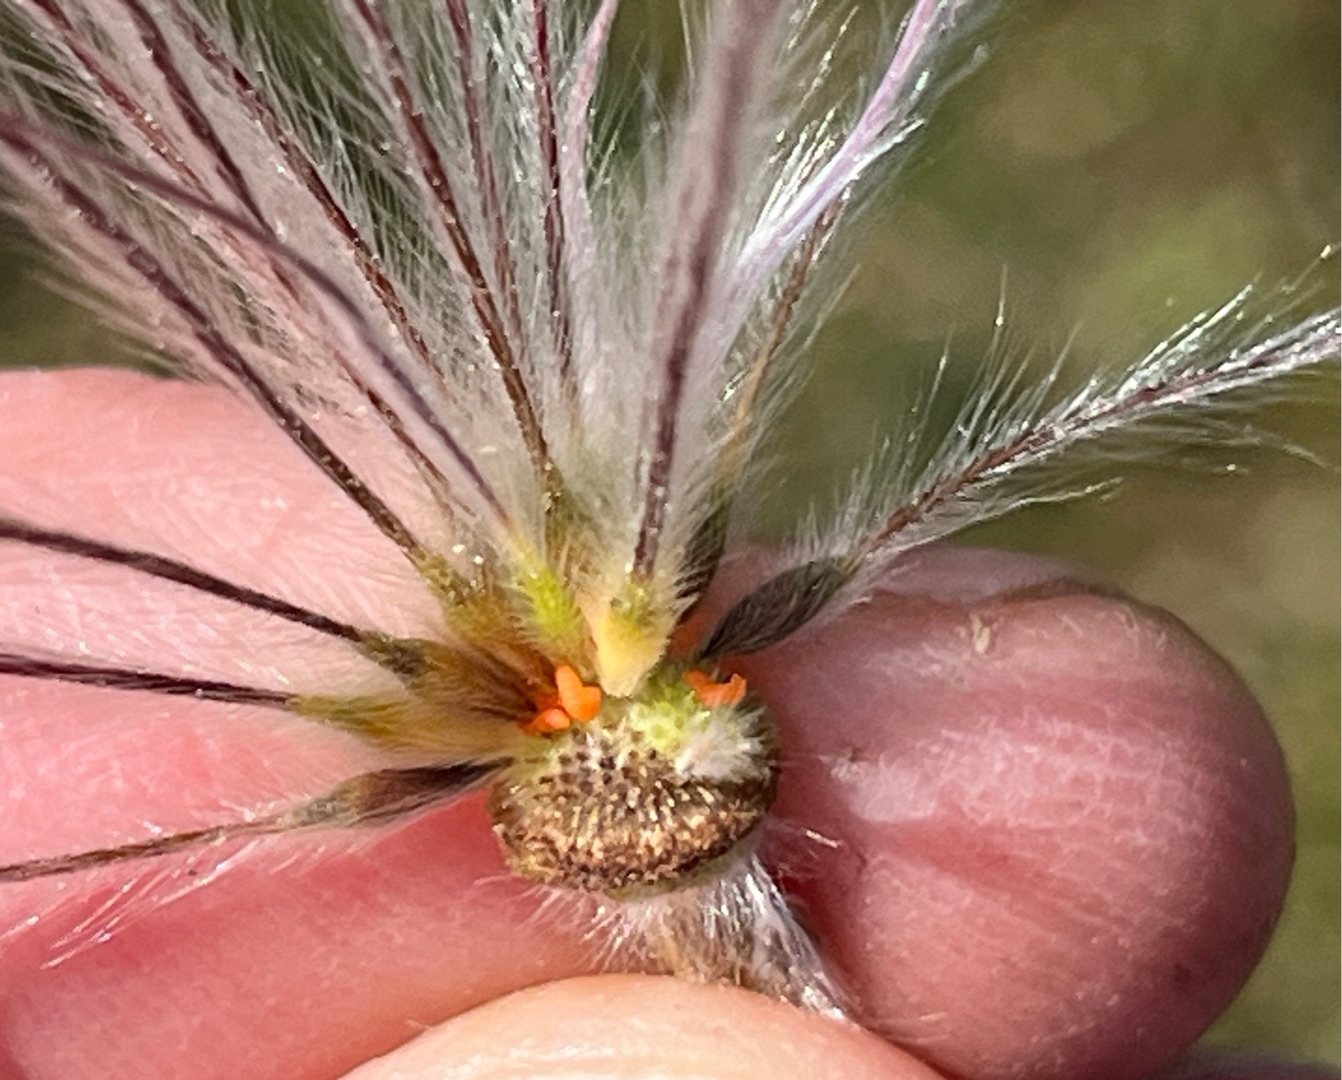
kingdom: Animalia
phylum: Arthropoda
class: Insecta
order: Diptera
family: Cecidomyiidae
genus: Dasineura
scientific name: Dasineura pulsatillae
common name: Kobjældegalmyg
